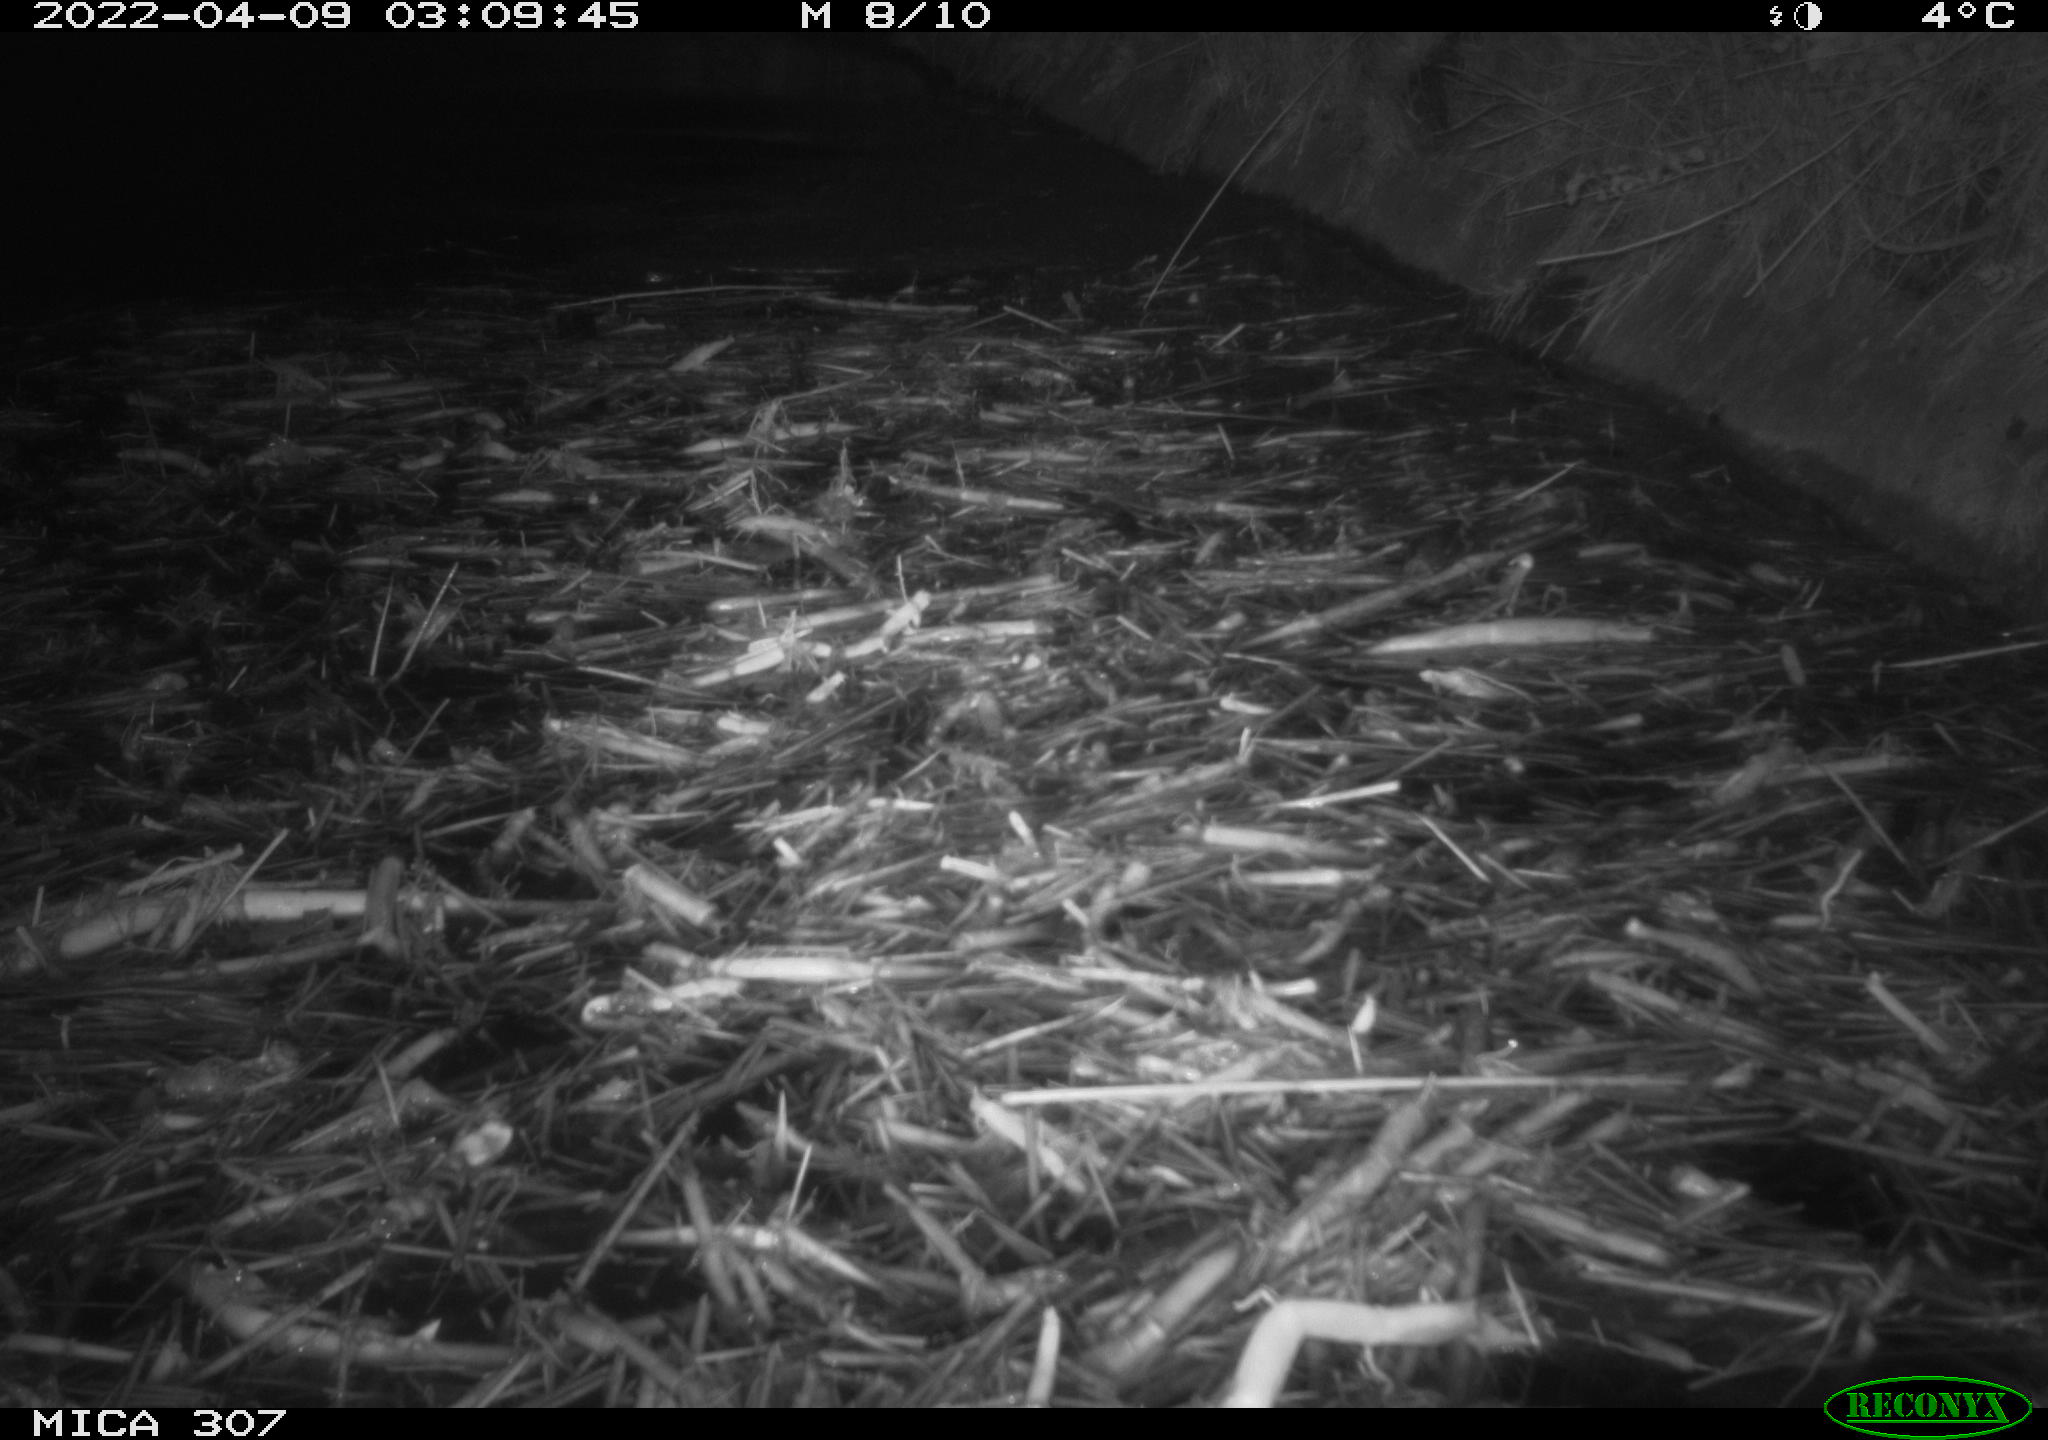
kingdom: Animalia
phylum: Chordata
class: Aves
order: Anseriformes
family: Anatidae
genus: Anas
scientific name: Anas platyrhynchos
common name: Mallard
